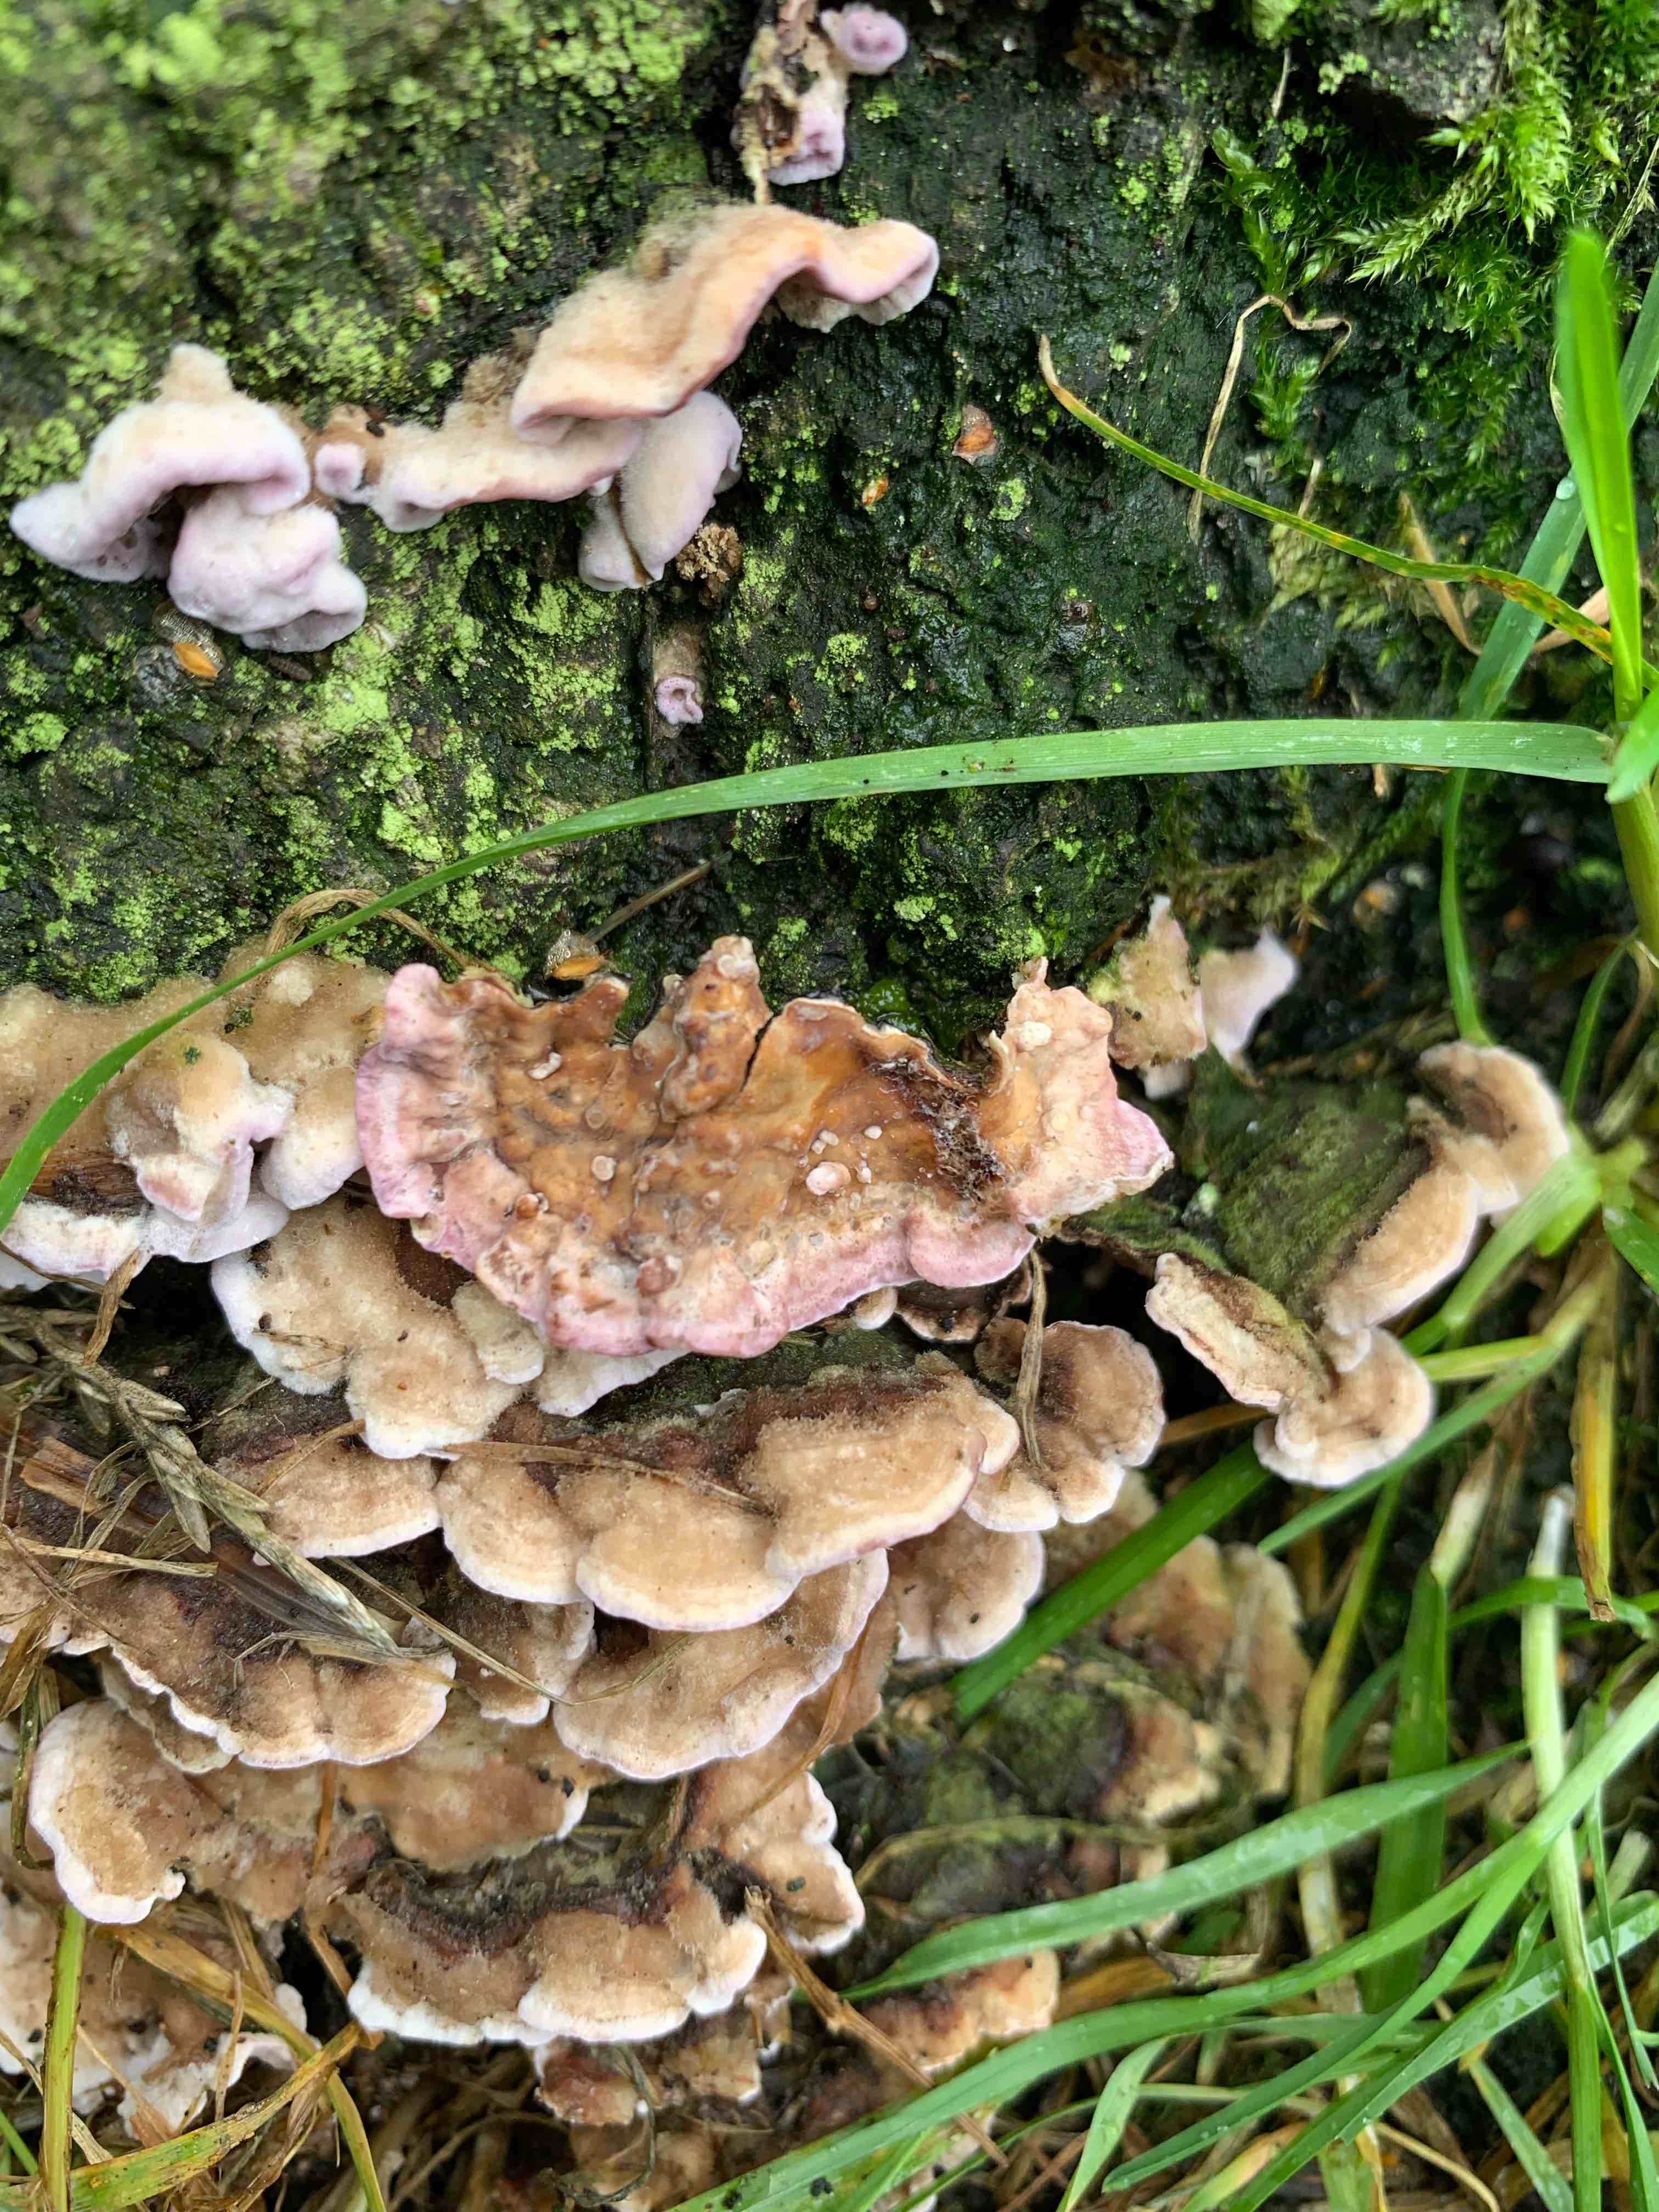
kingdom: Fungi
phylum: Basidiomycota
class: Agaricomycetes
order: Agaricales
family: Cyphellaceae
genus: Chondrostereum
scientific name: Chondrostereum purpureum
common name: purpurlædersvamp
